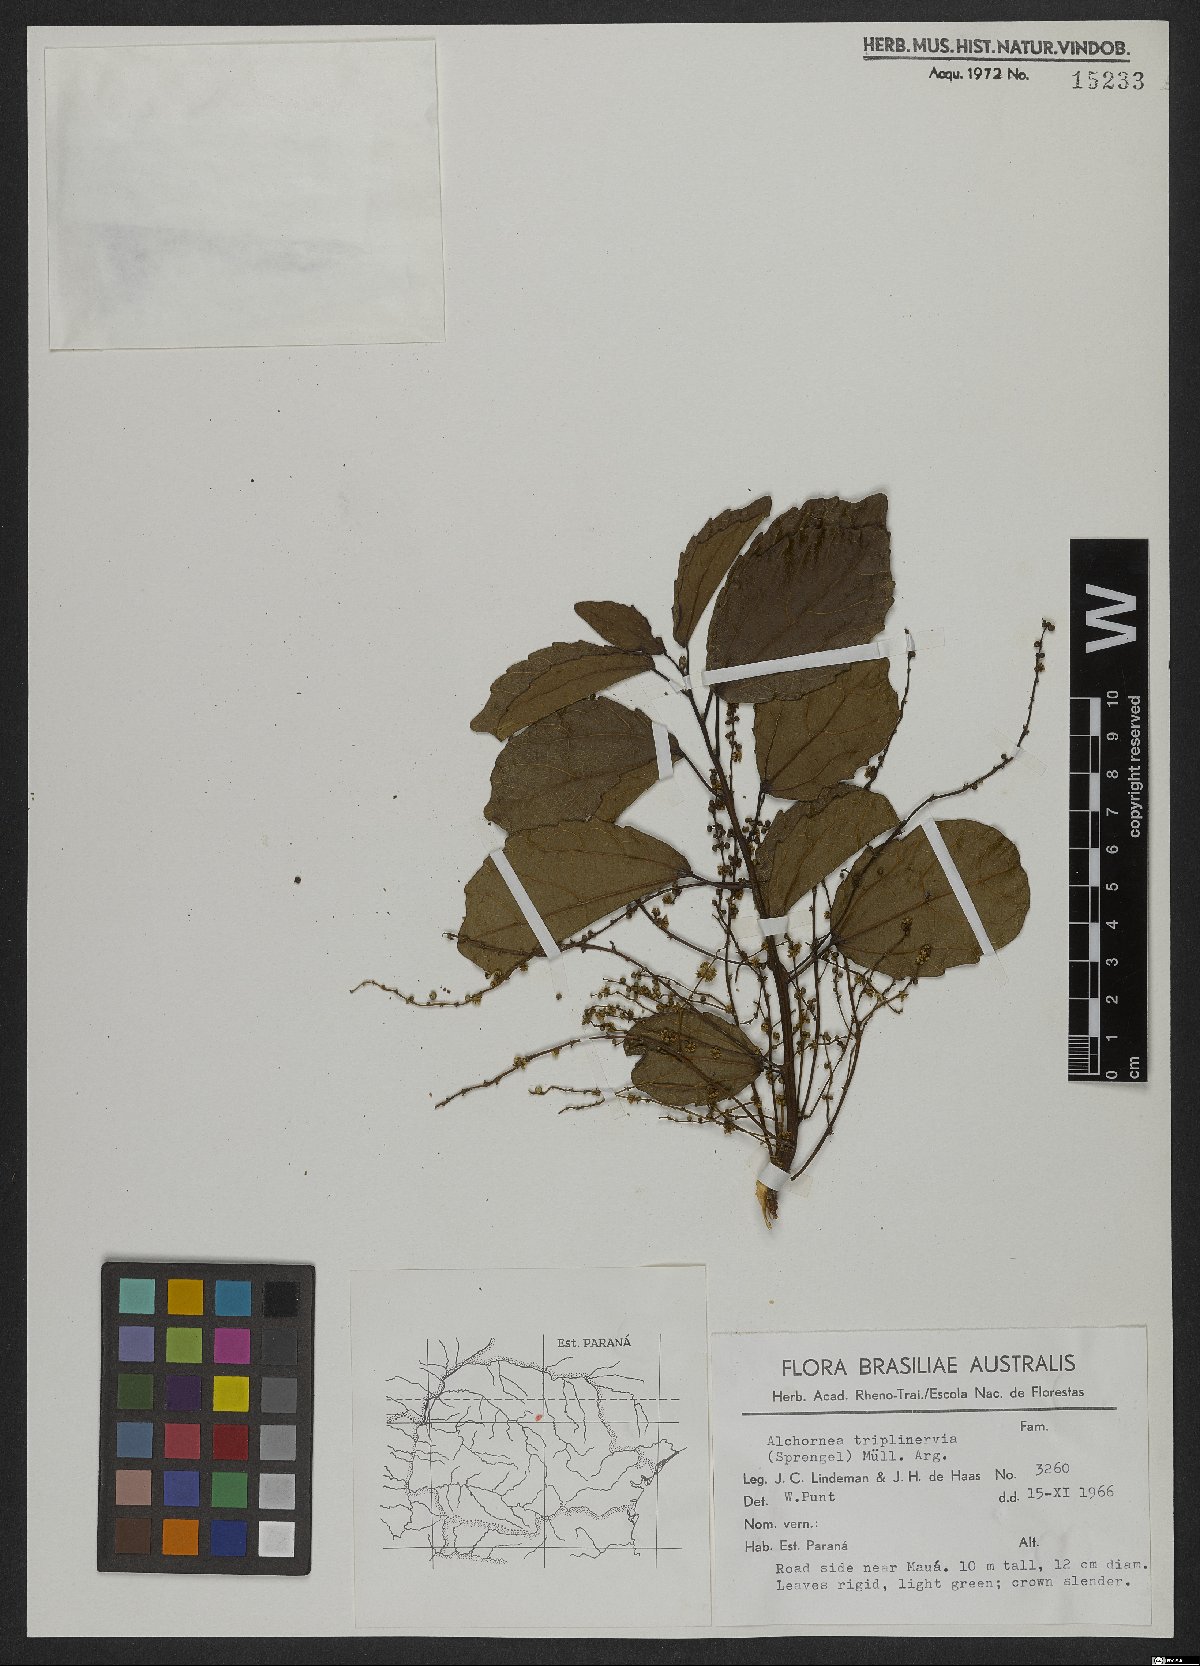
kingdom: Plantae
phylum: Tracheophyta
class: Magnoliopsida
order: Malpighiales
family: Euphorbiaceae
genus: Alchornea
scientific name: Alchornea triplinervia
